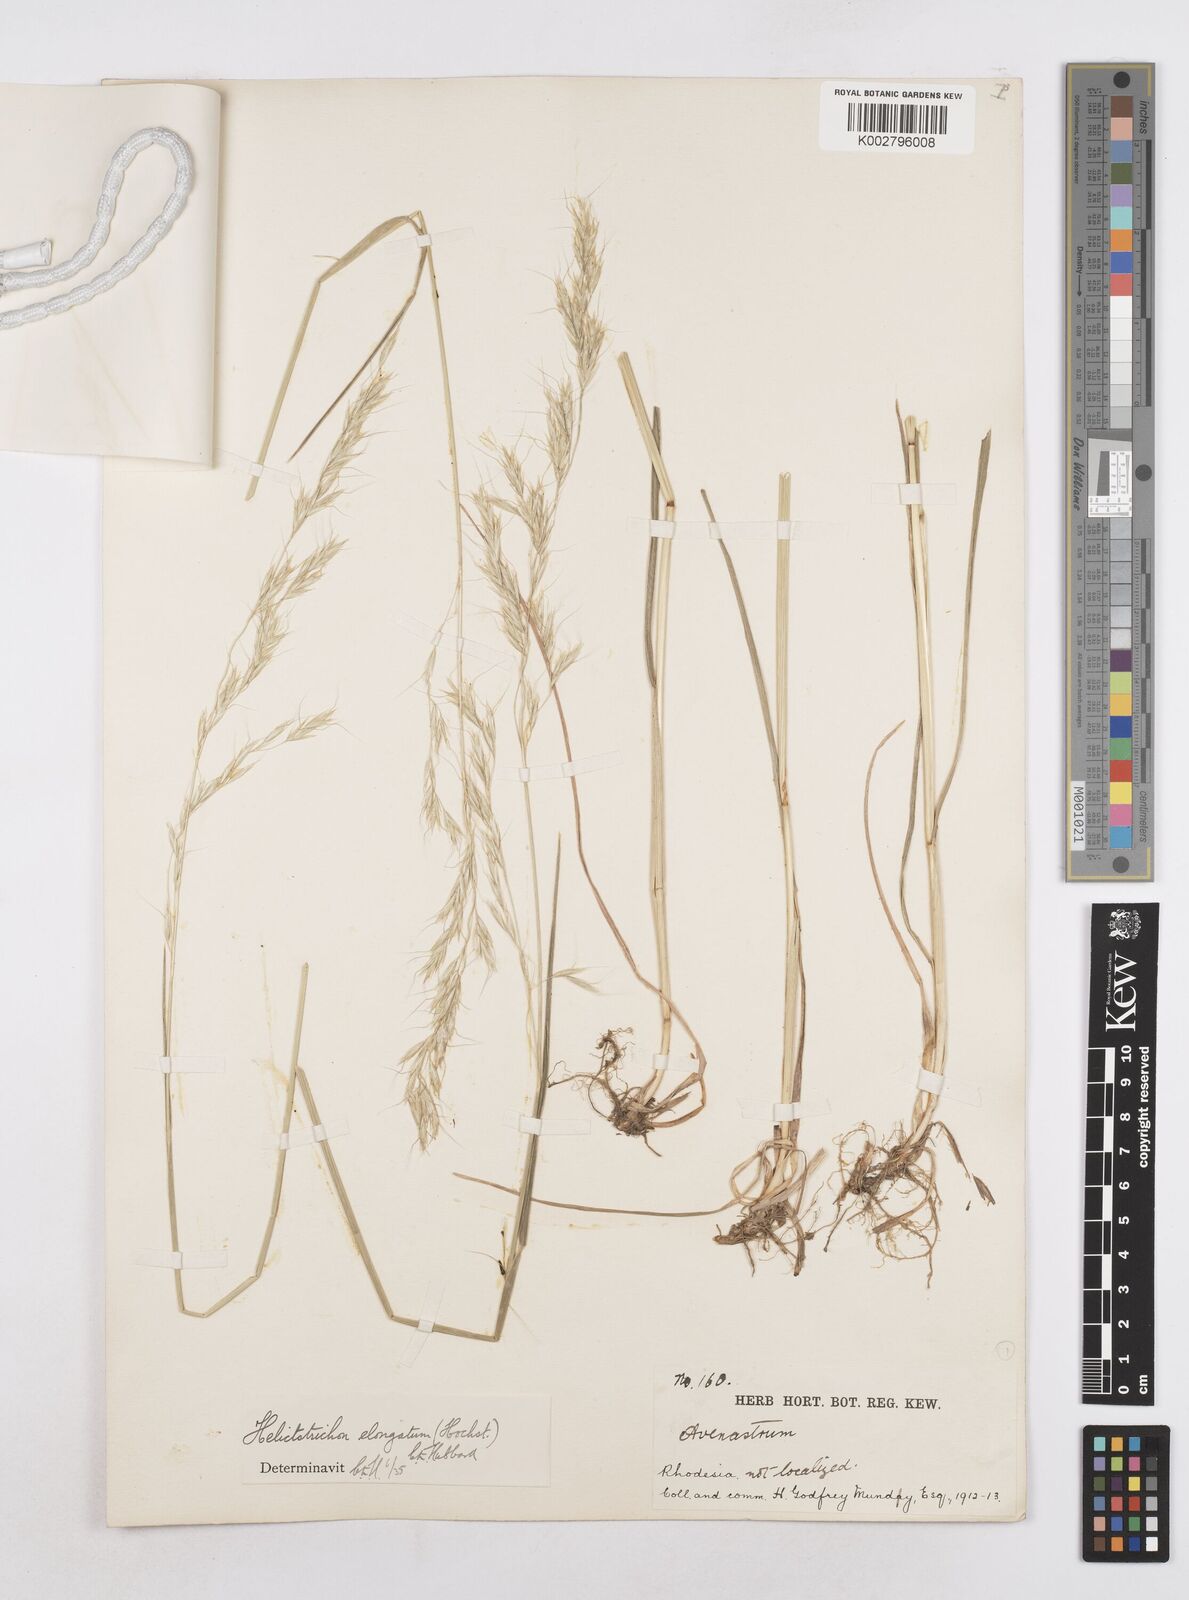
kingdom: Plantae
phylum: Tracheophyta
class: Liliopsida
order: Poales
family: Poaceae
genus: Trisetopsis
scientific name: Trisetopsis elongata
